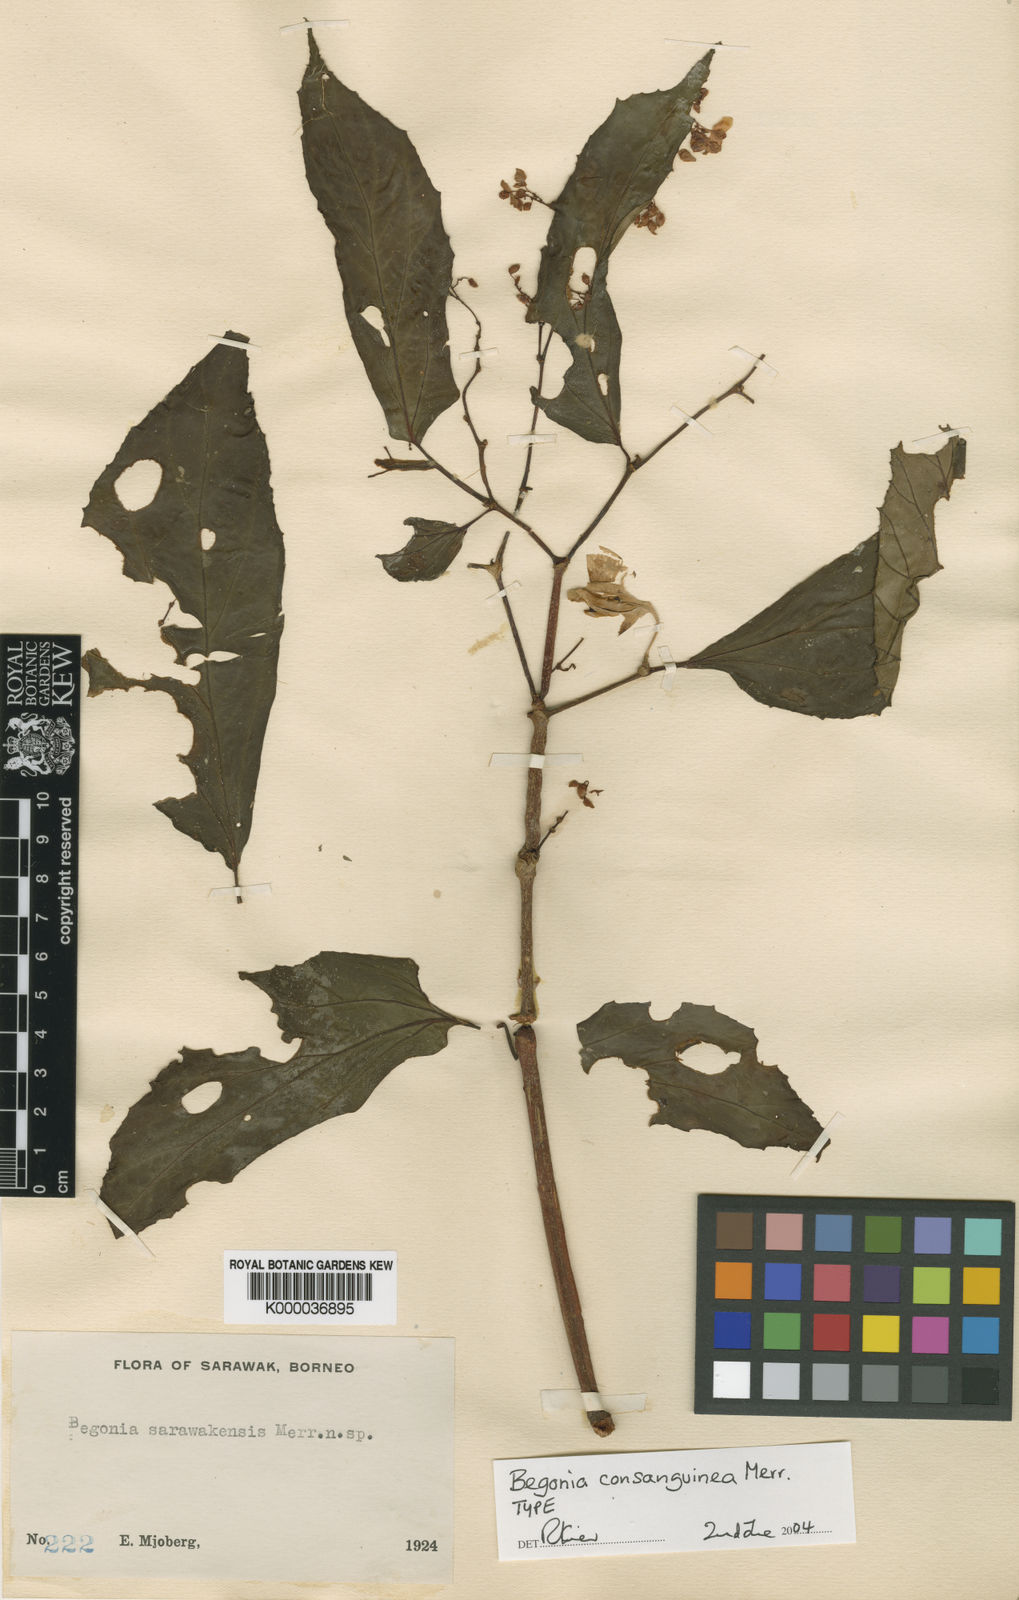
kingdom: Plantae
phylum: Tracheophyta
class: Magnoliopsida
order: Cucurbitales
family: Begoniaceae
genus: Begonia
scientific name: Begonia consanguinea
